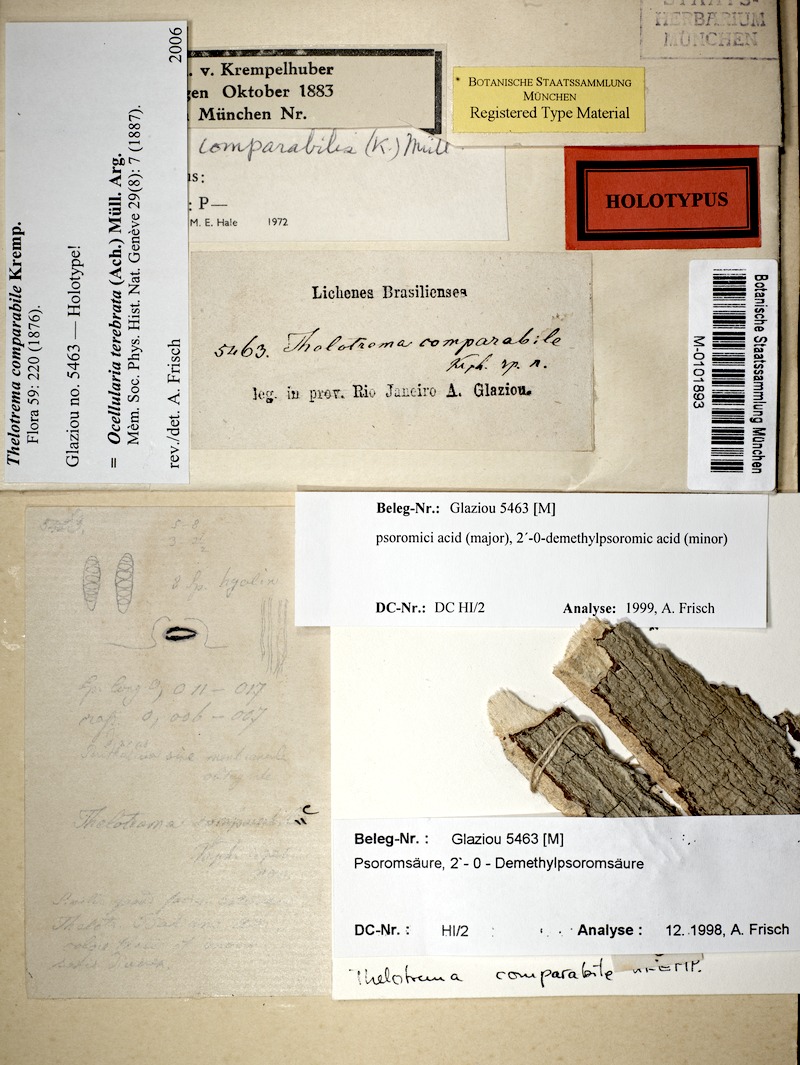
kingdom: Fungi
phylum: Ascomycota
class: Lecanoromycetes
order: Ostropales
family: Graphidaceae
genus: Ocellularia
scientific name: Ocellularia terebrata
